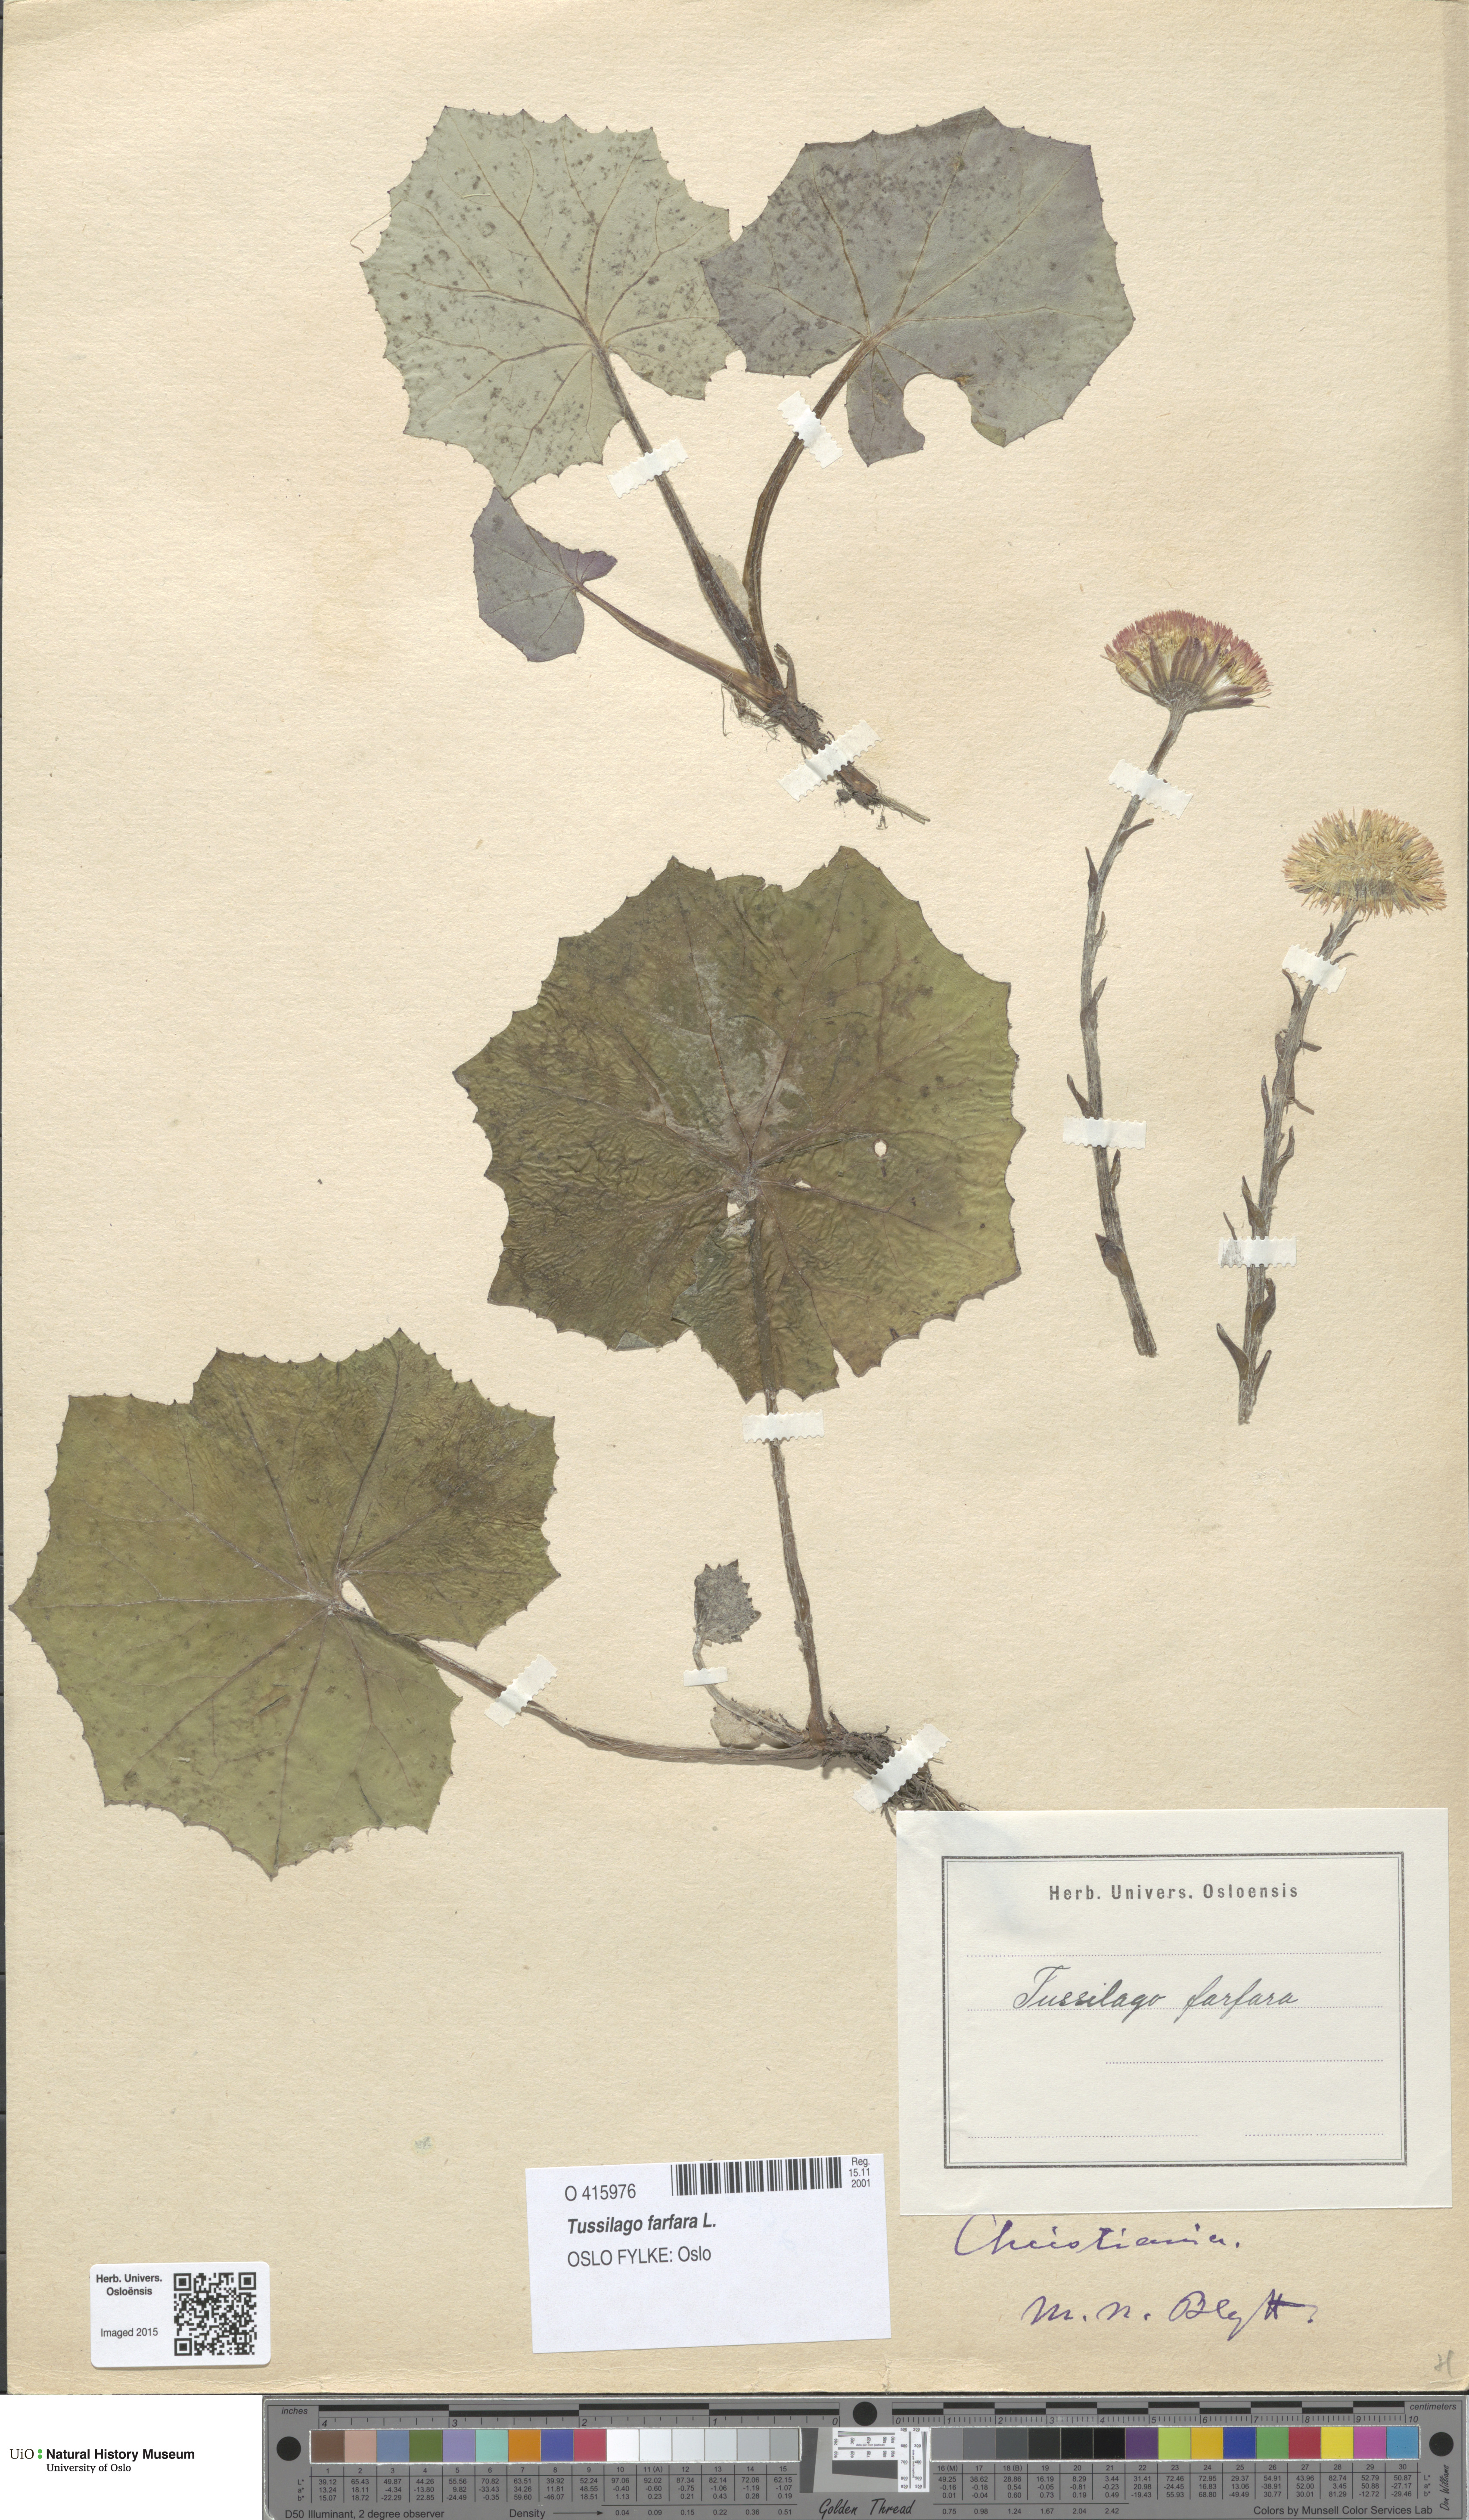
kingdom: Plantae
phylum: Tracheophyta
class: Magnoliopsida
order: Asterales
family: Asteraceae
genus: Tussilago
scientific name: Tussilago farfara
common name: Coltsfoot
